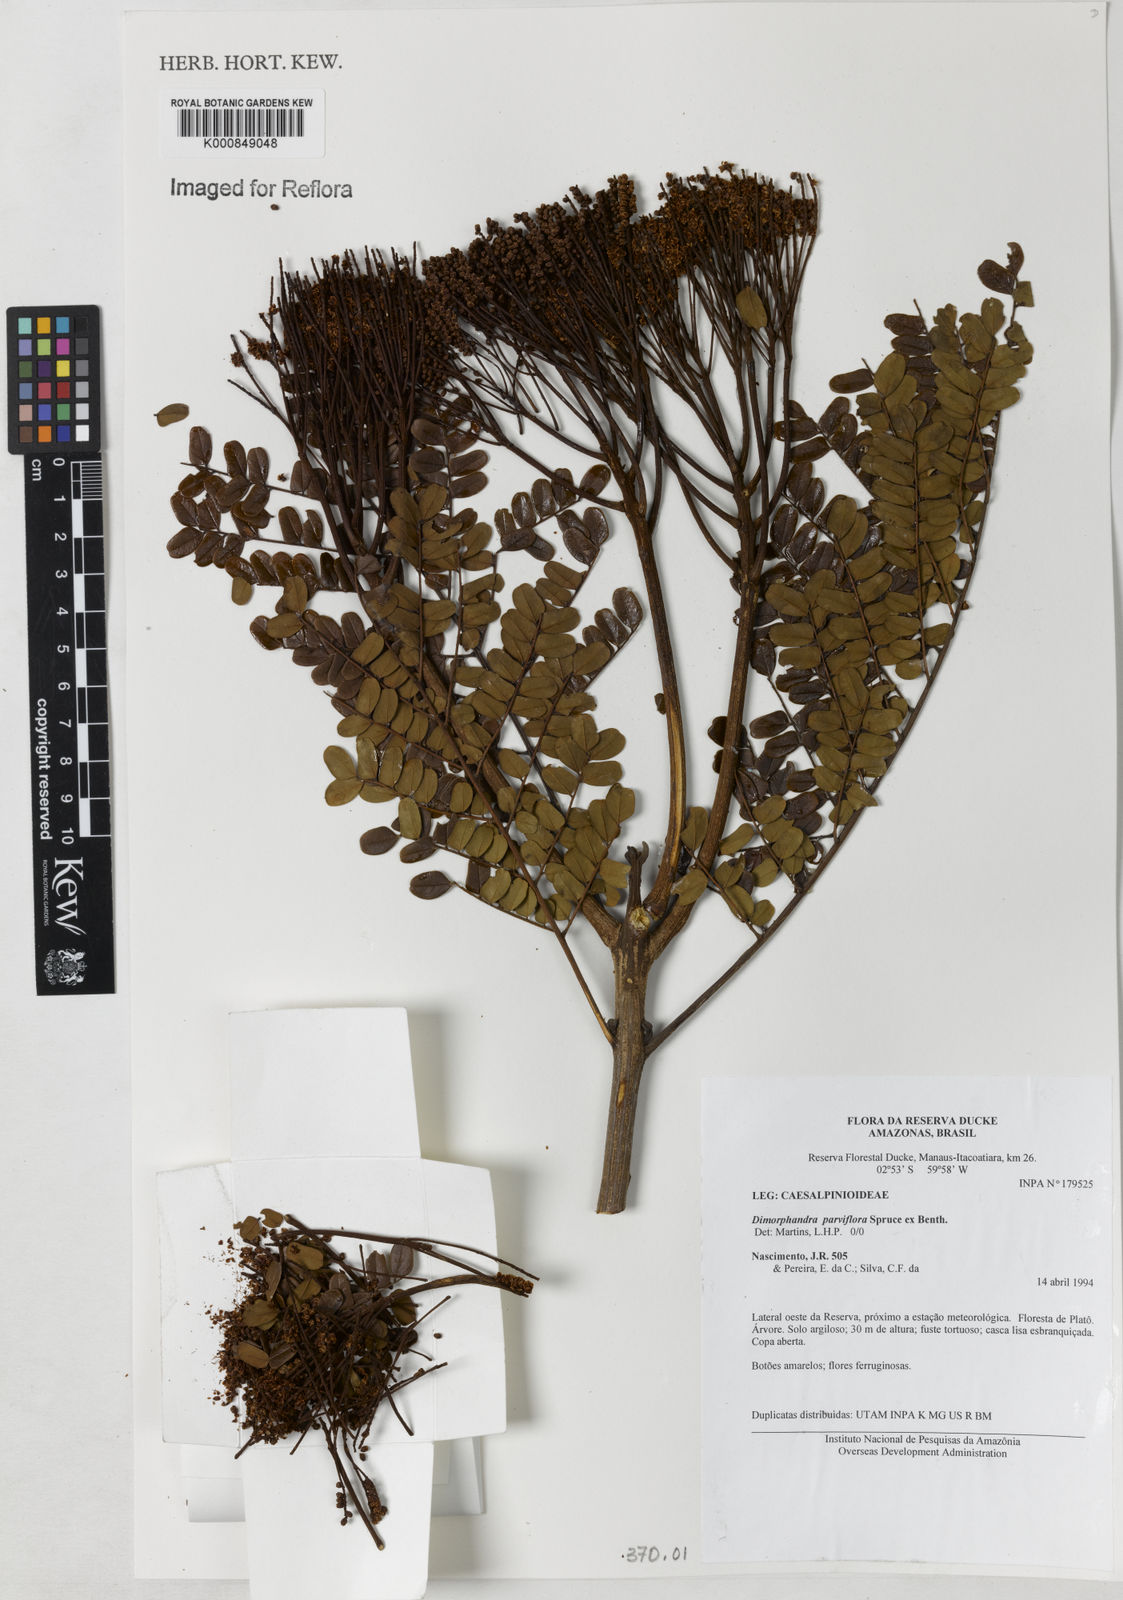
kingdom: Plantae
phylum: Tracheophyta
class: Magnoliopsida
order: Fabales
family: Fabaceae
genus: Dimorphandra
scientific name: Dimorphandra parviflora
